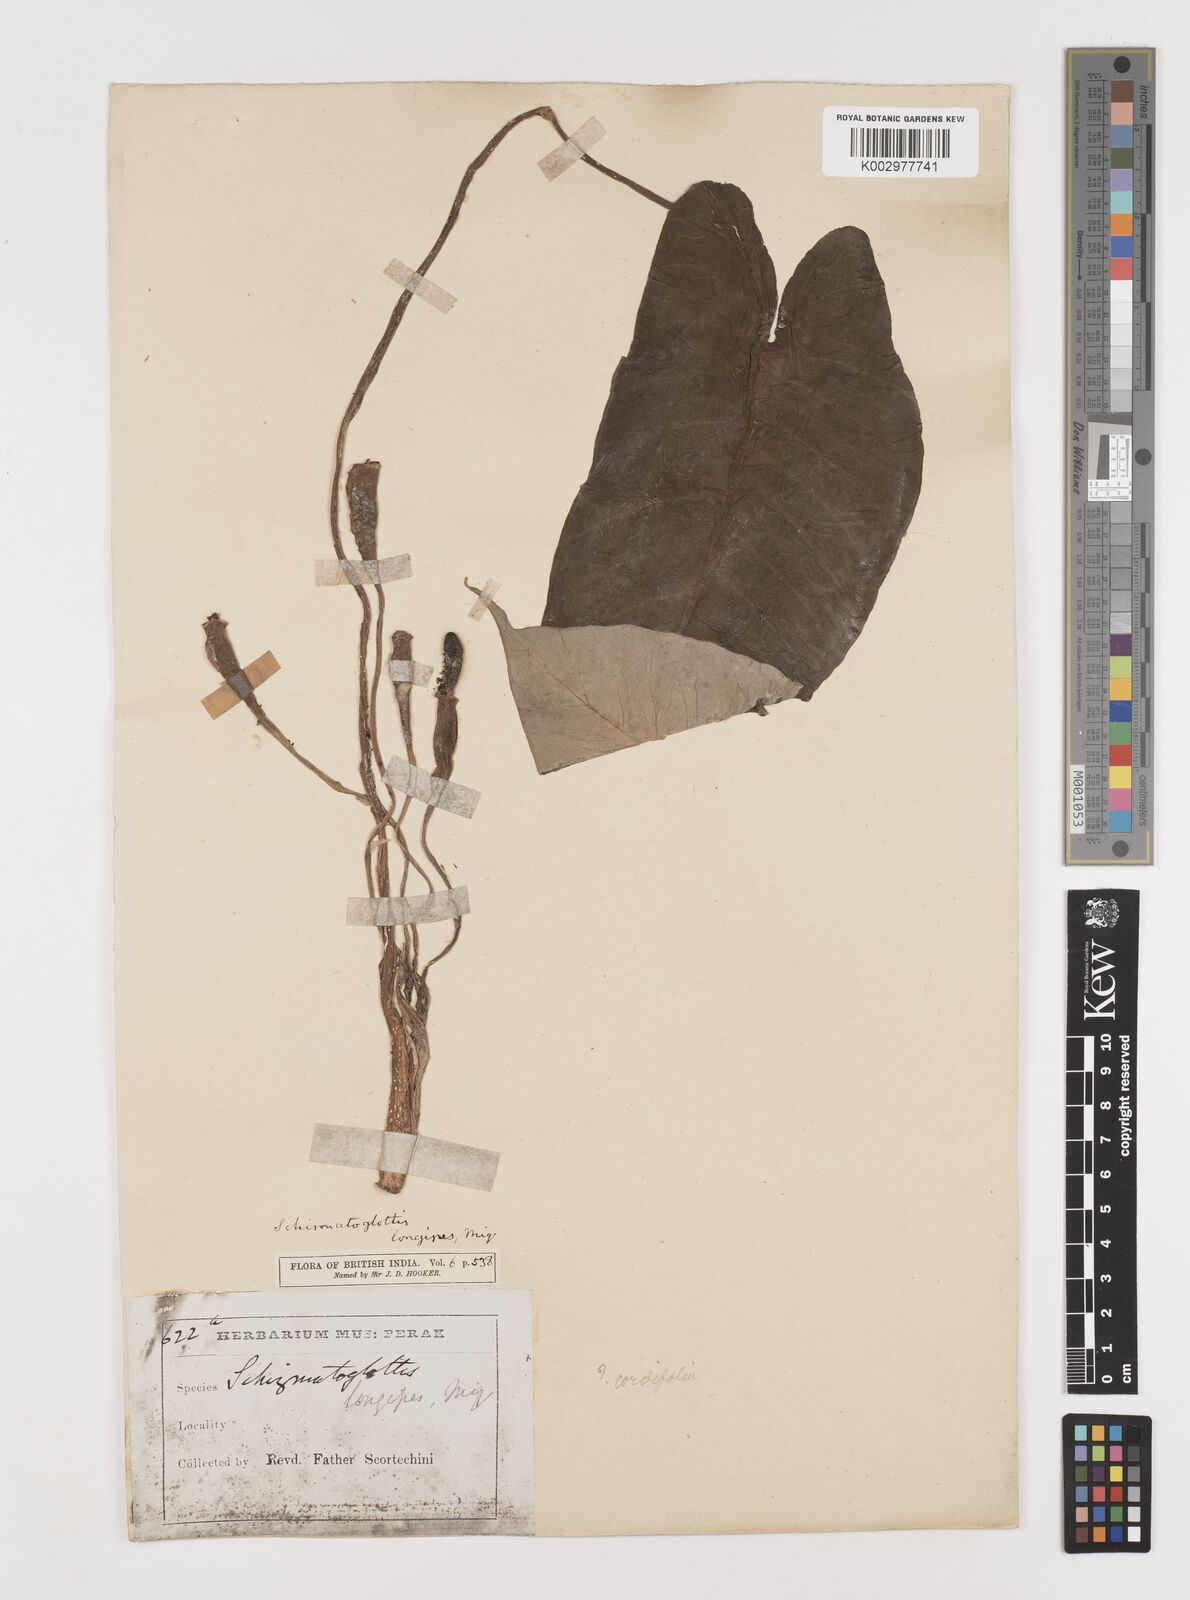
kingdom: Plantae
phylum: Tracheophyta
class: Liliopsida
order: Alismatales
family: Araceae
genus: Schismatoglottis
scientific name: Schismatoglottis calyptrata
